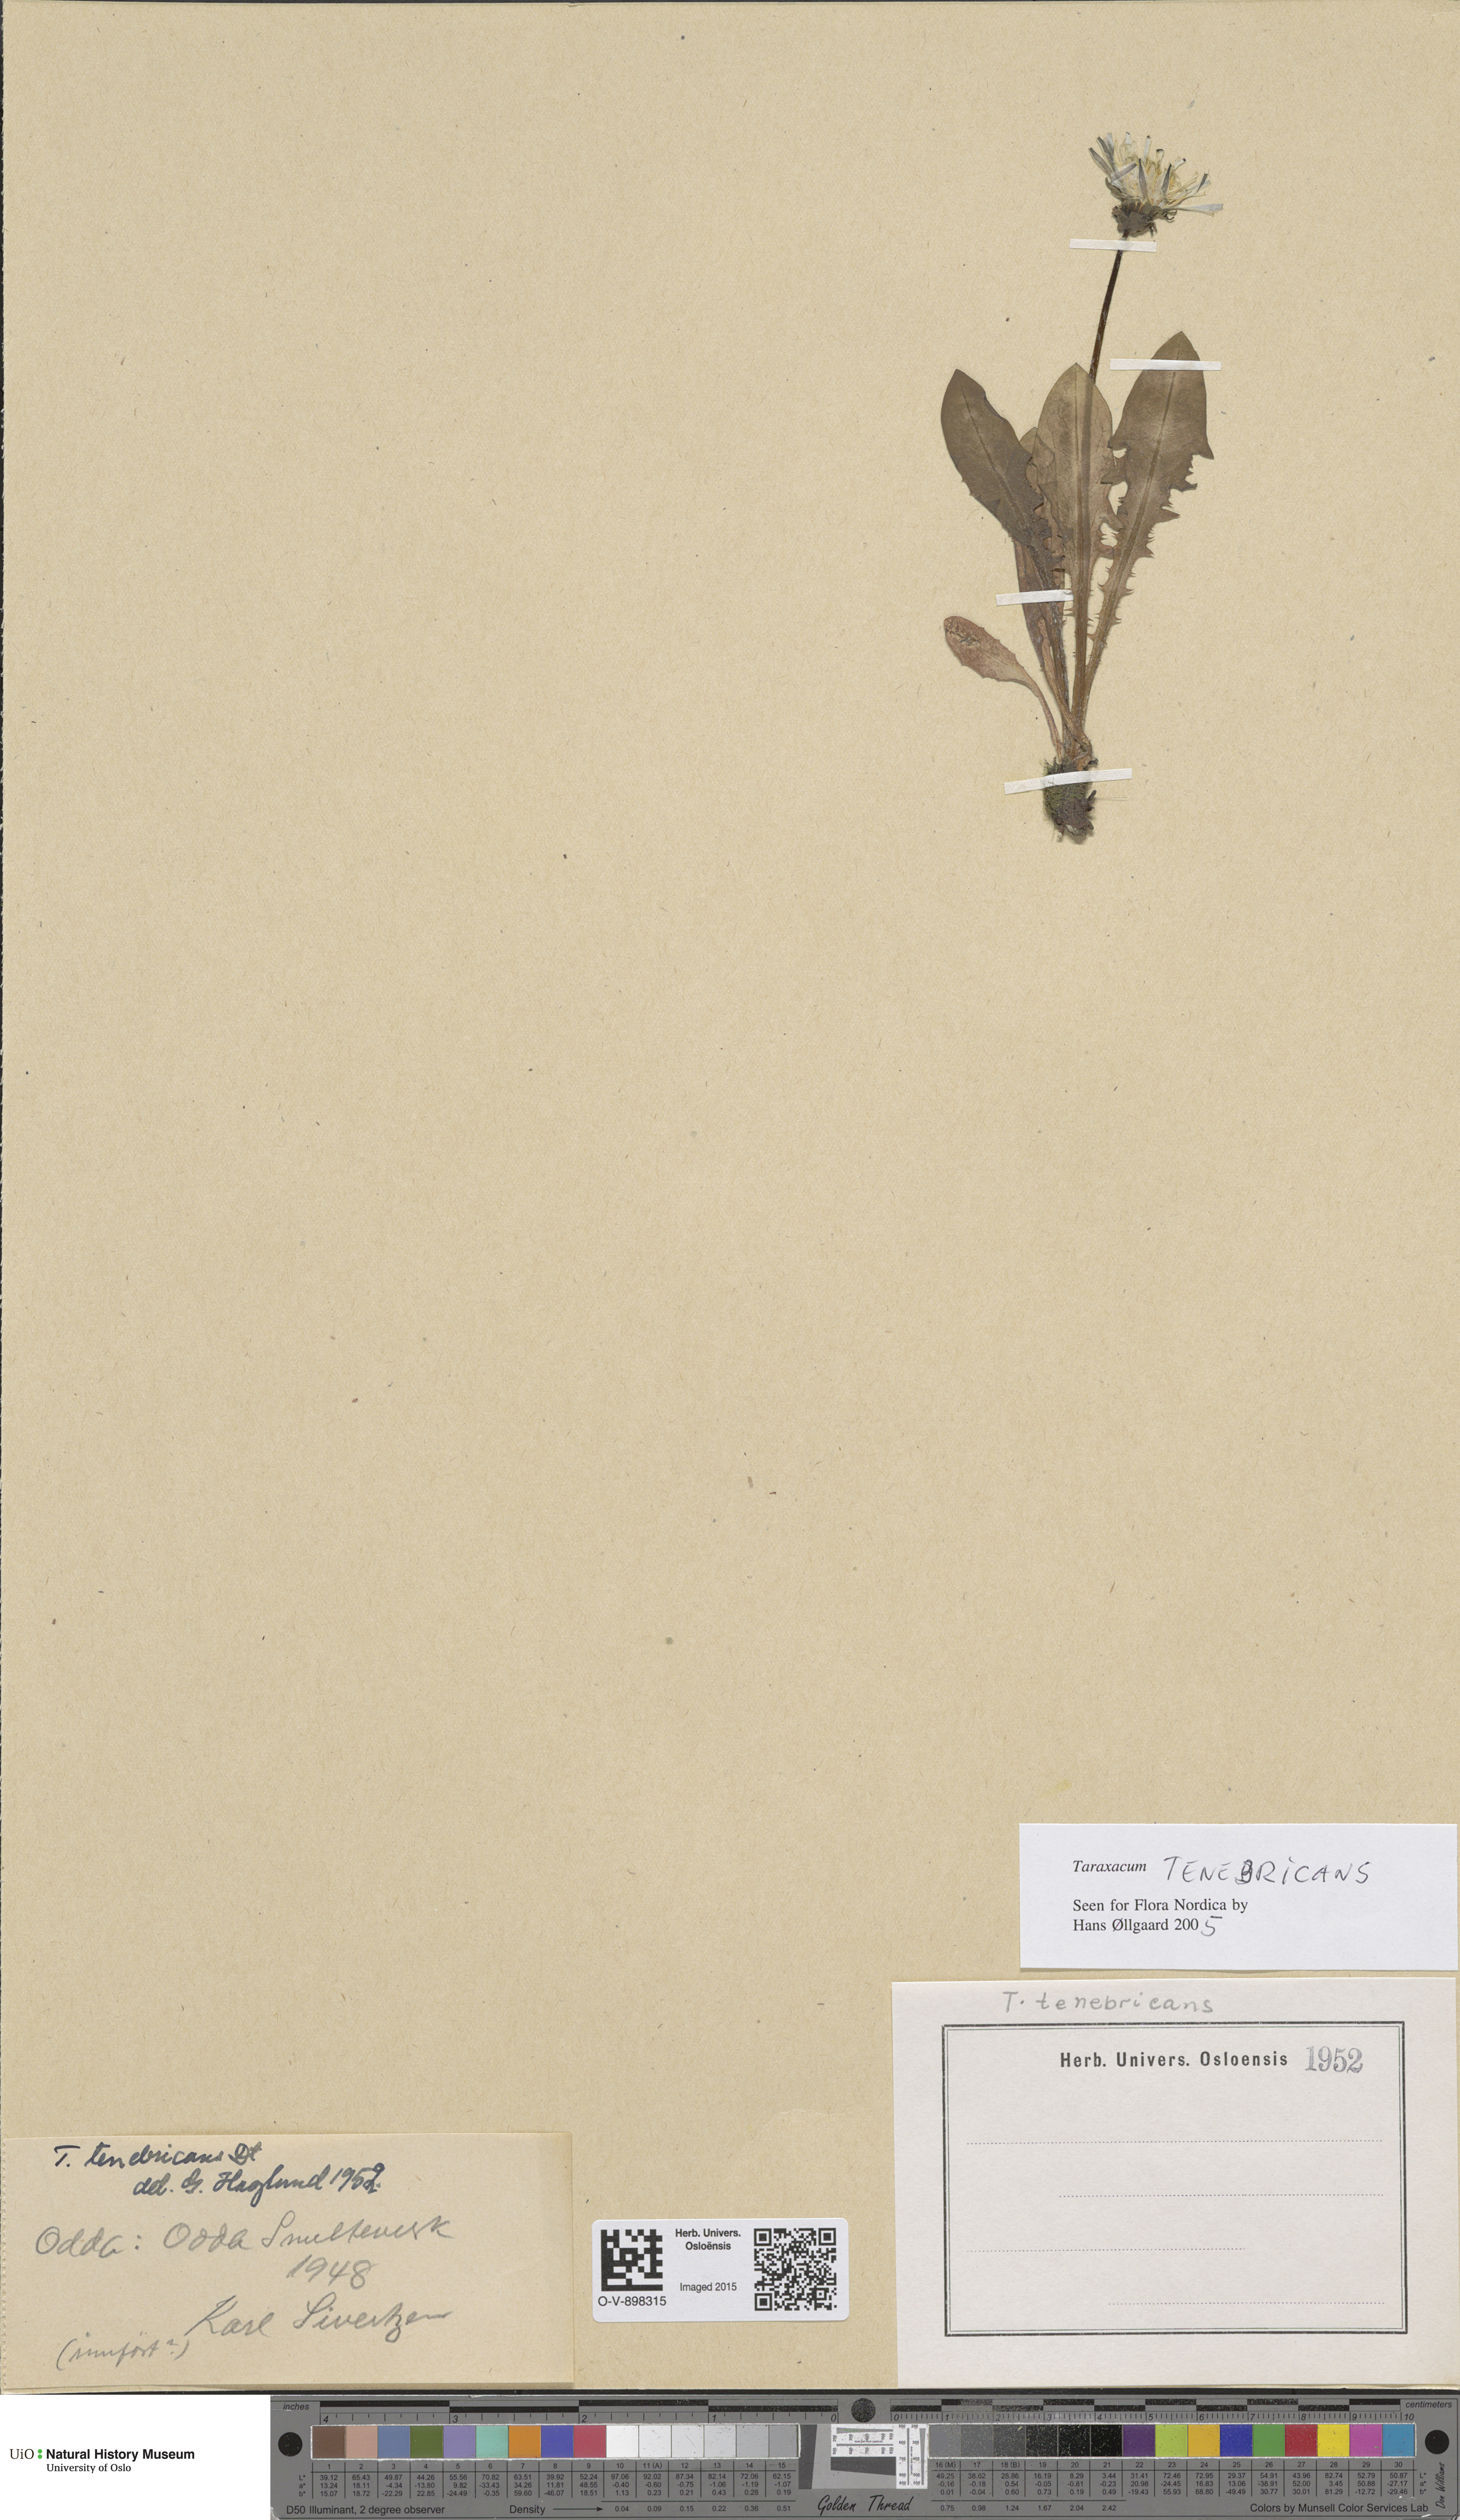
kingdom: Plantae
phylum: Tracheophyta
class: Magnoliopsida
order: Asterales
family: Asteraceae
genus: Taraxacum
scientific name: Taraxacum tenebricans
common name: Shiny-leaved dandelion
